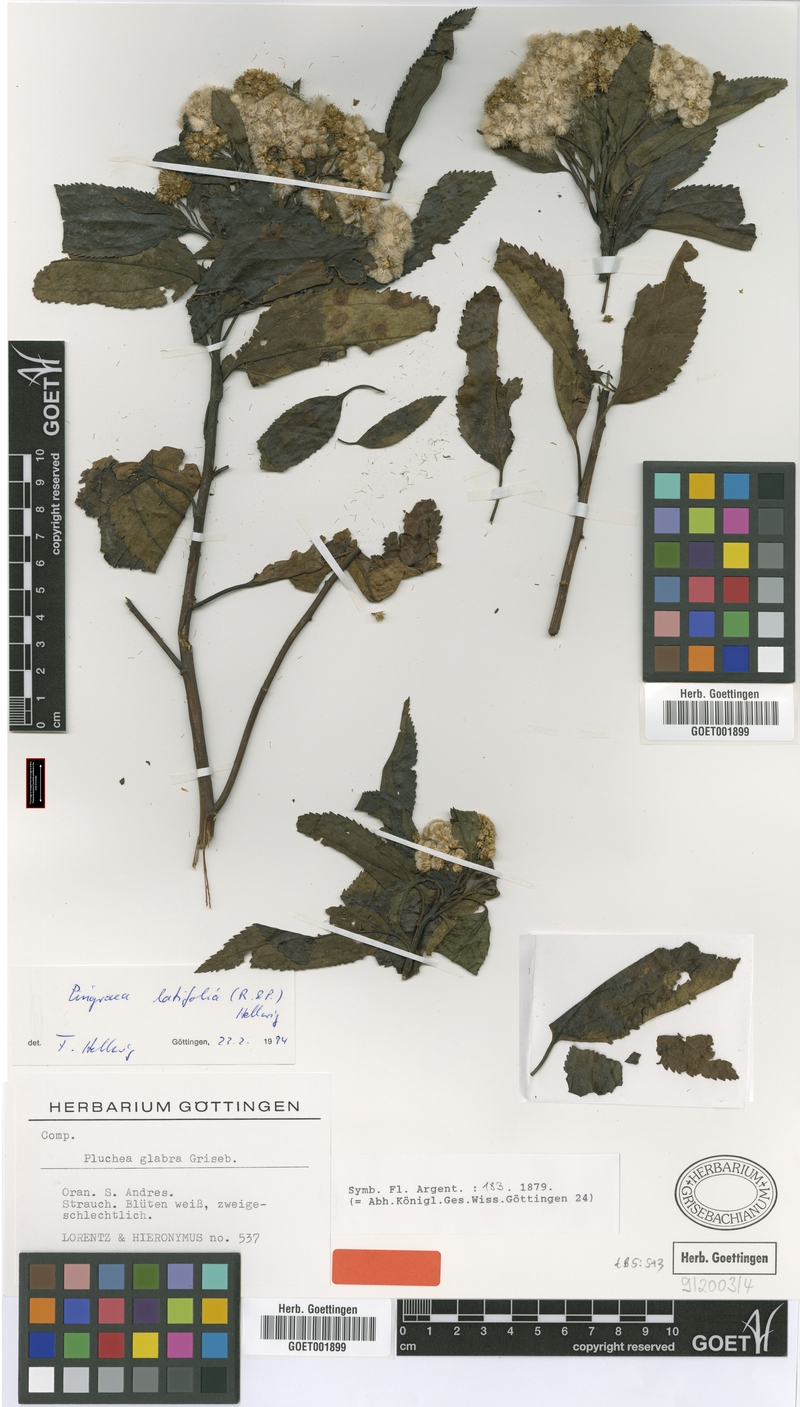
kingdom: Plantae
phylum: Tracheophyta
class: Magnoliopsida
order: Asterales
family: Asteraceae
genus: Baccharis
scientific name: Baccharis latifolia
